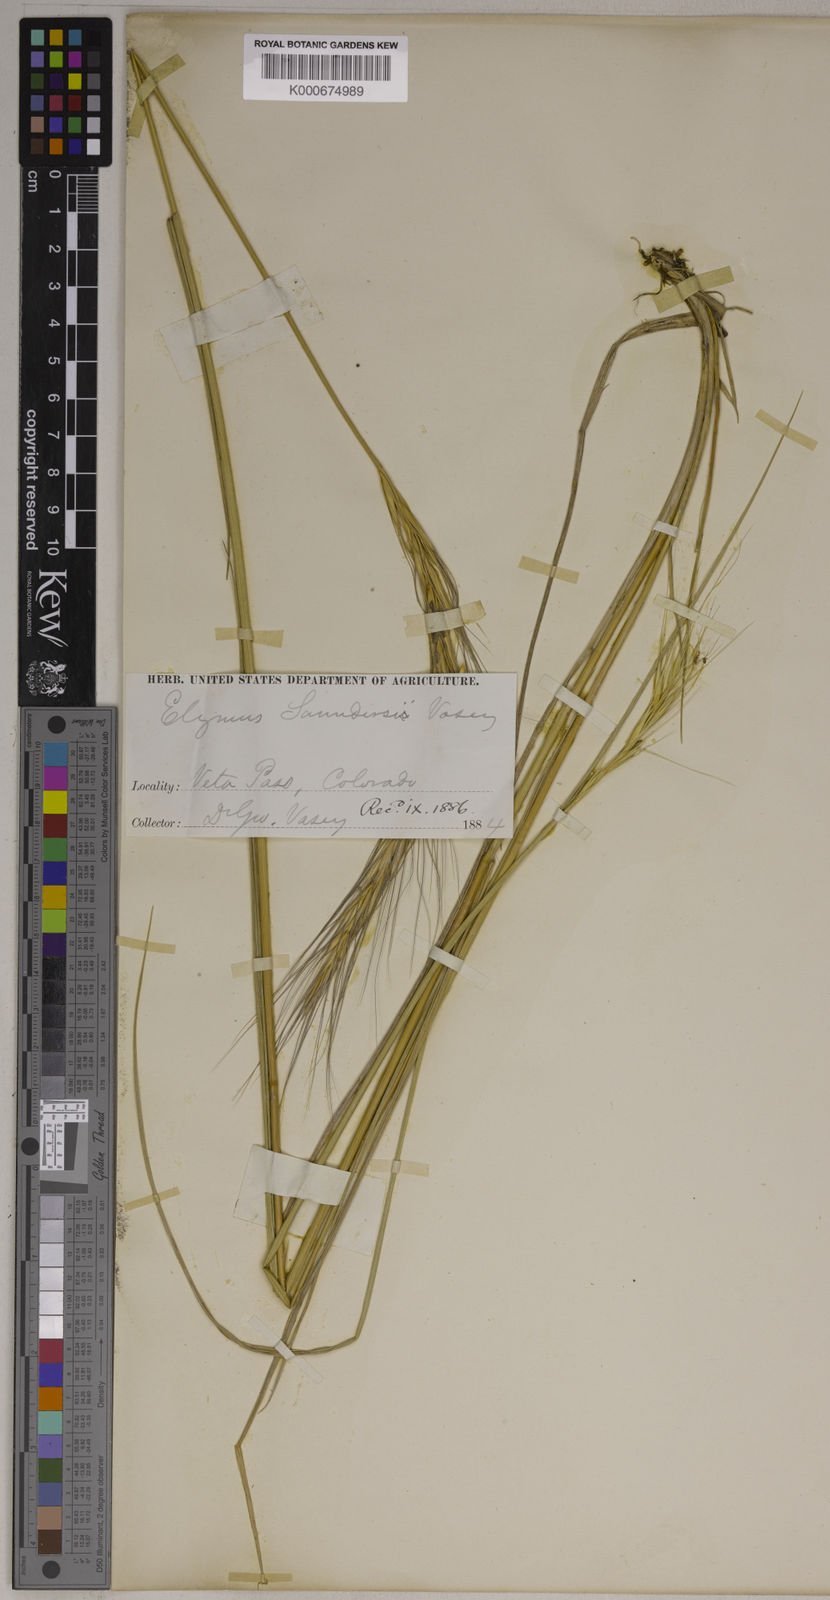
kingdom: Plantae
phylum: Tracheophyta
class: Liliopsida
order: Poales
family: Poaceae
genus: Elymus
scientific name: Elymus saundersii
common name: Saunder's wildrye
